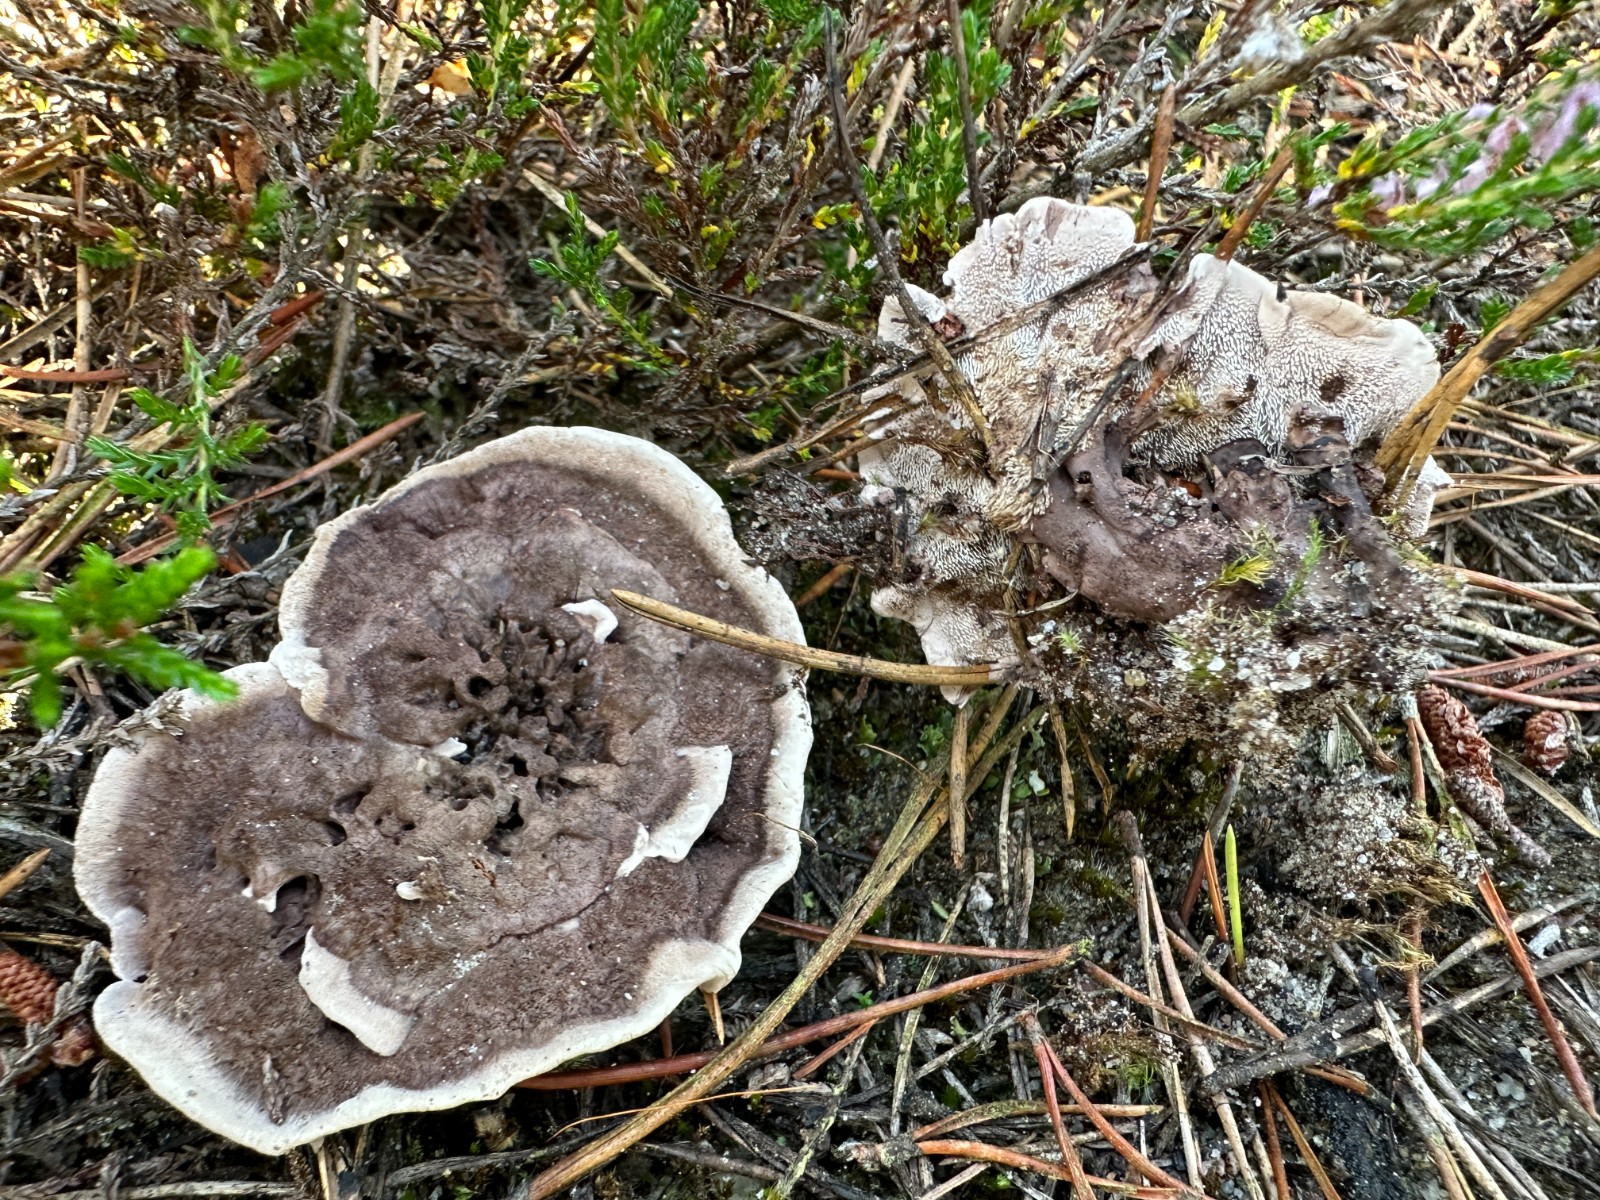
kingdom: Fungi
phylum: Basidiomycota
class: Agaricomycetes
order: Thelephorales
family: Thelephoraceae
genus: Phellodon
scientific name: Phellodon tomentosus
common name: vellugtende duftpigsvamp
